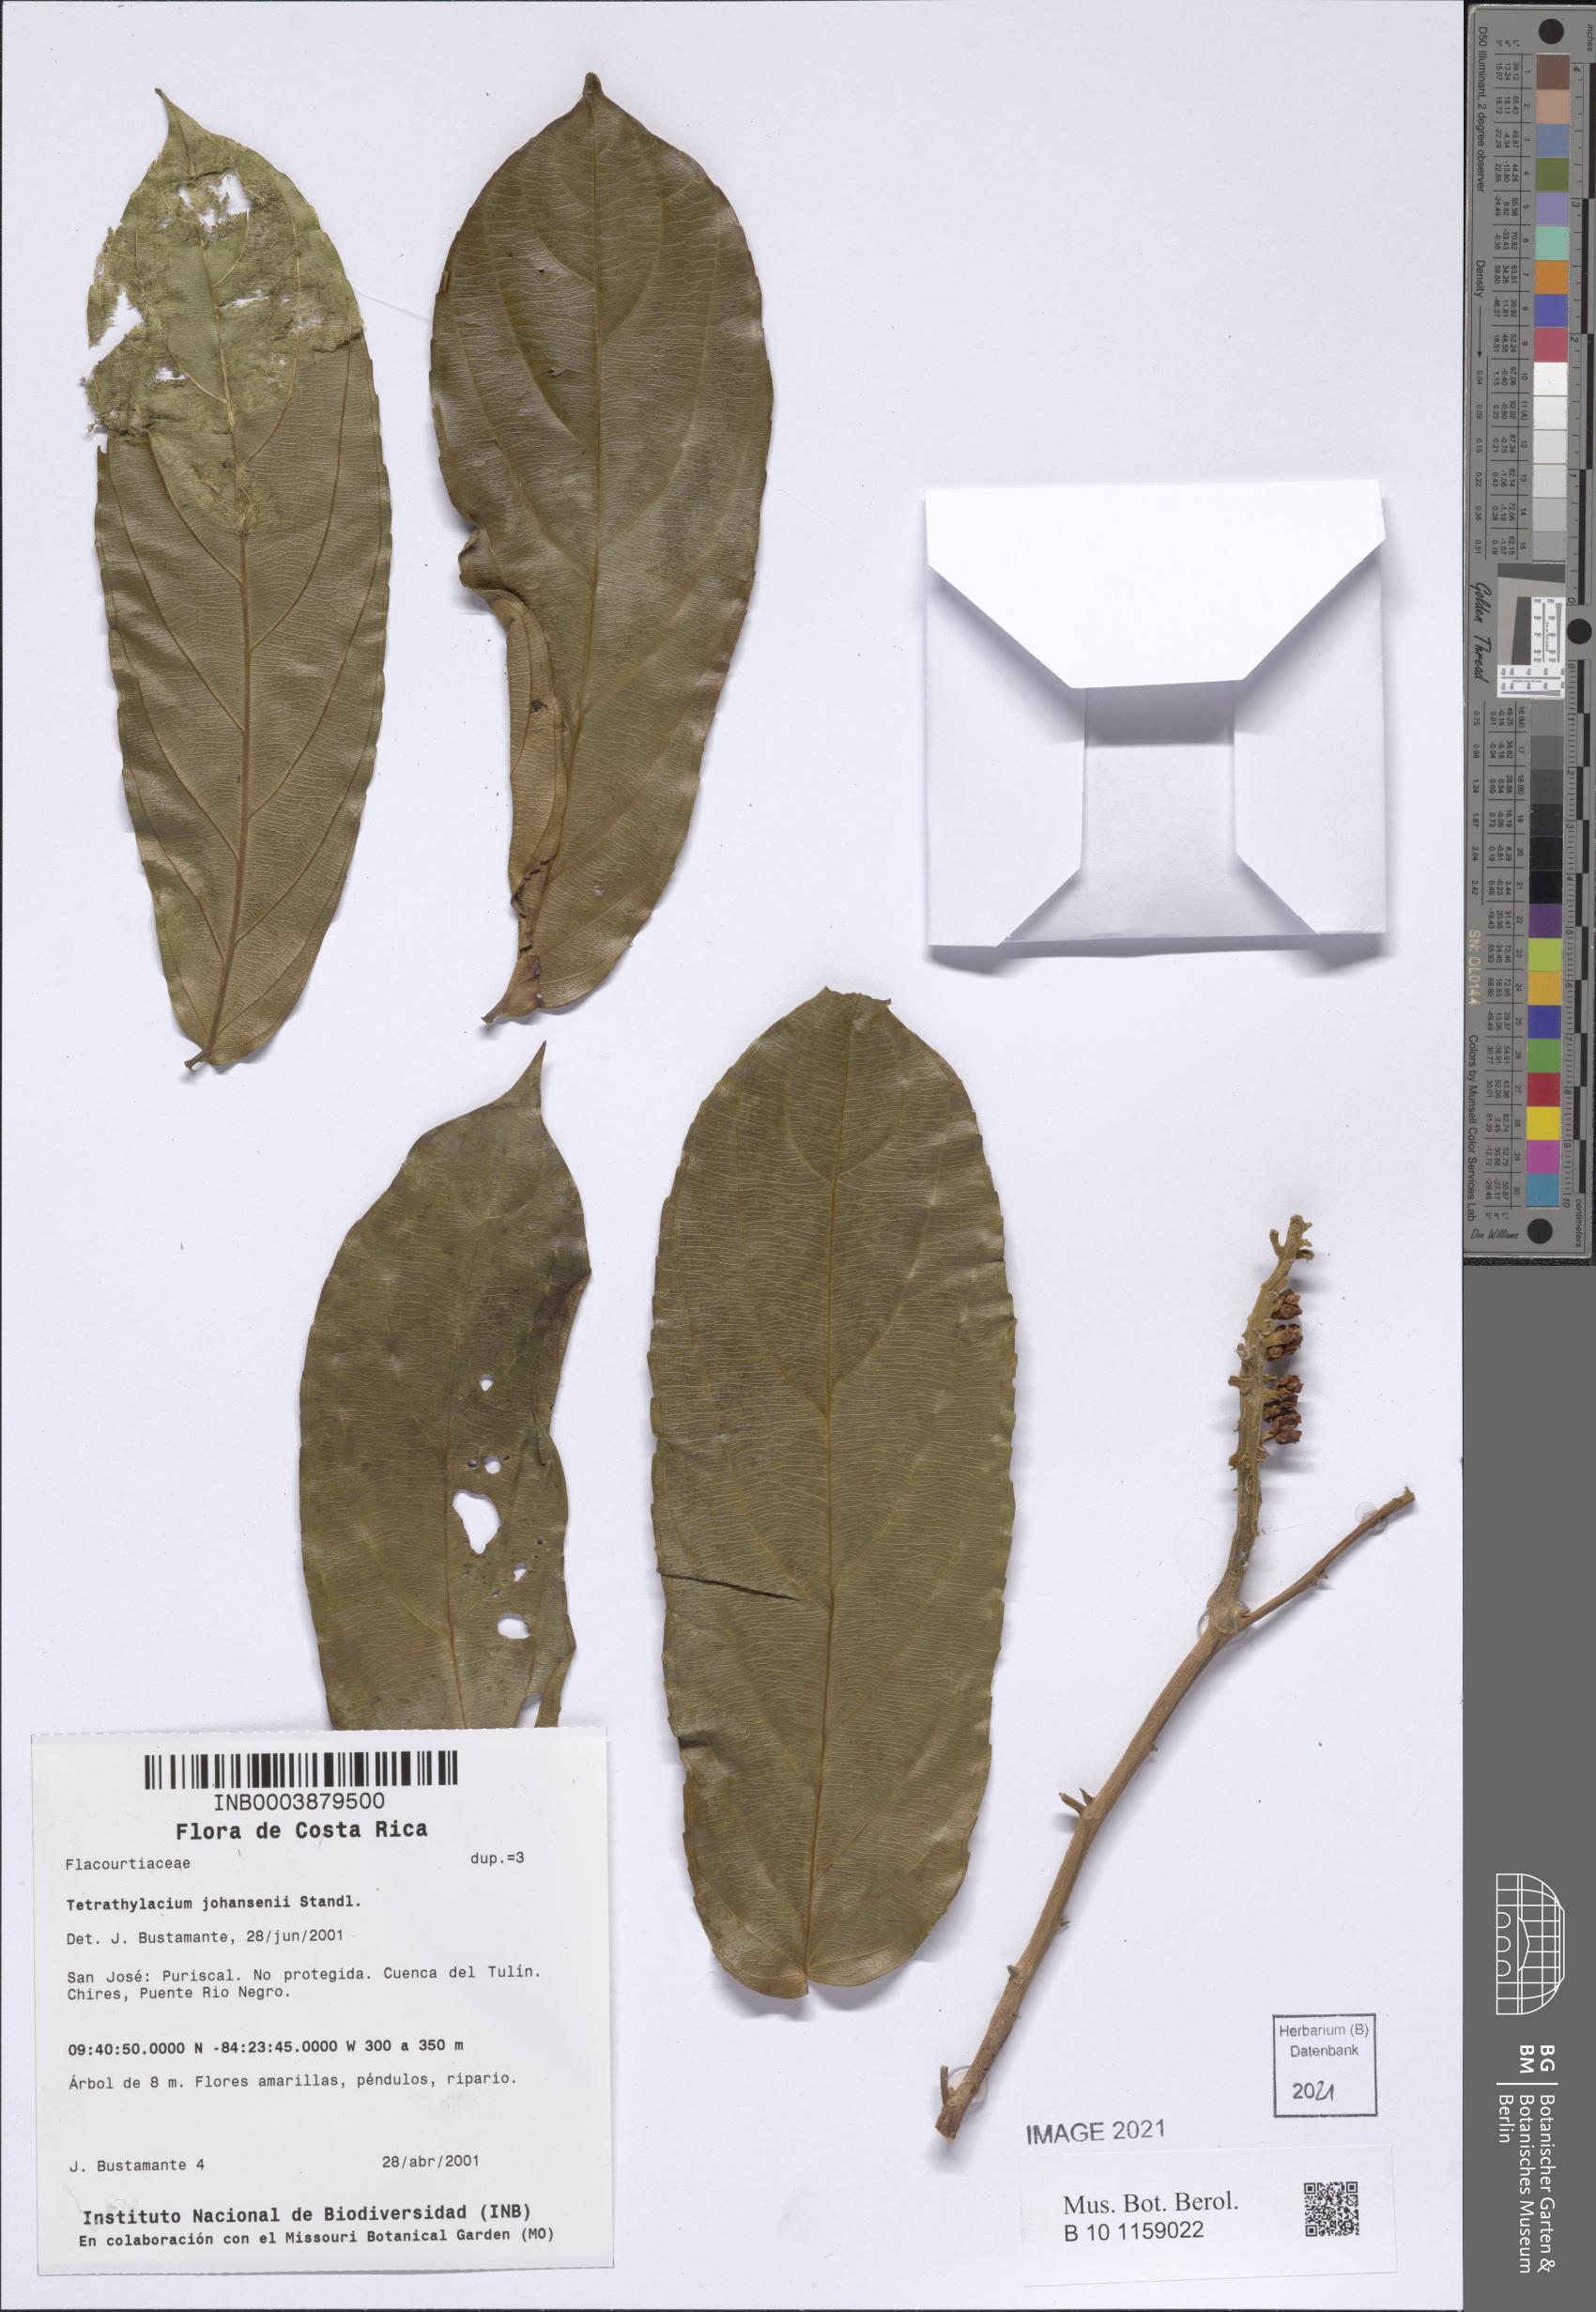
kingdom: Plantae
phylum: Tracheophyta
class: Magnoliopsida
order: Malpighiales
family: Salicaceae
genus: Tetrathylacium
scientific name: Tetrathylacium johansenii
